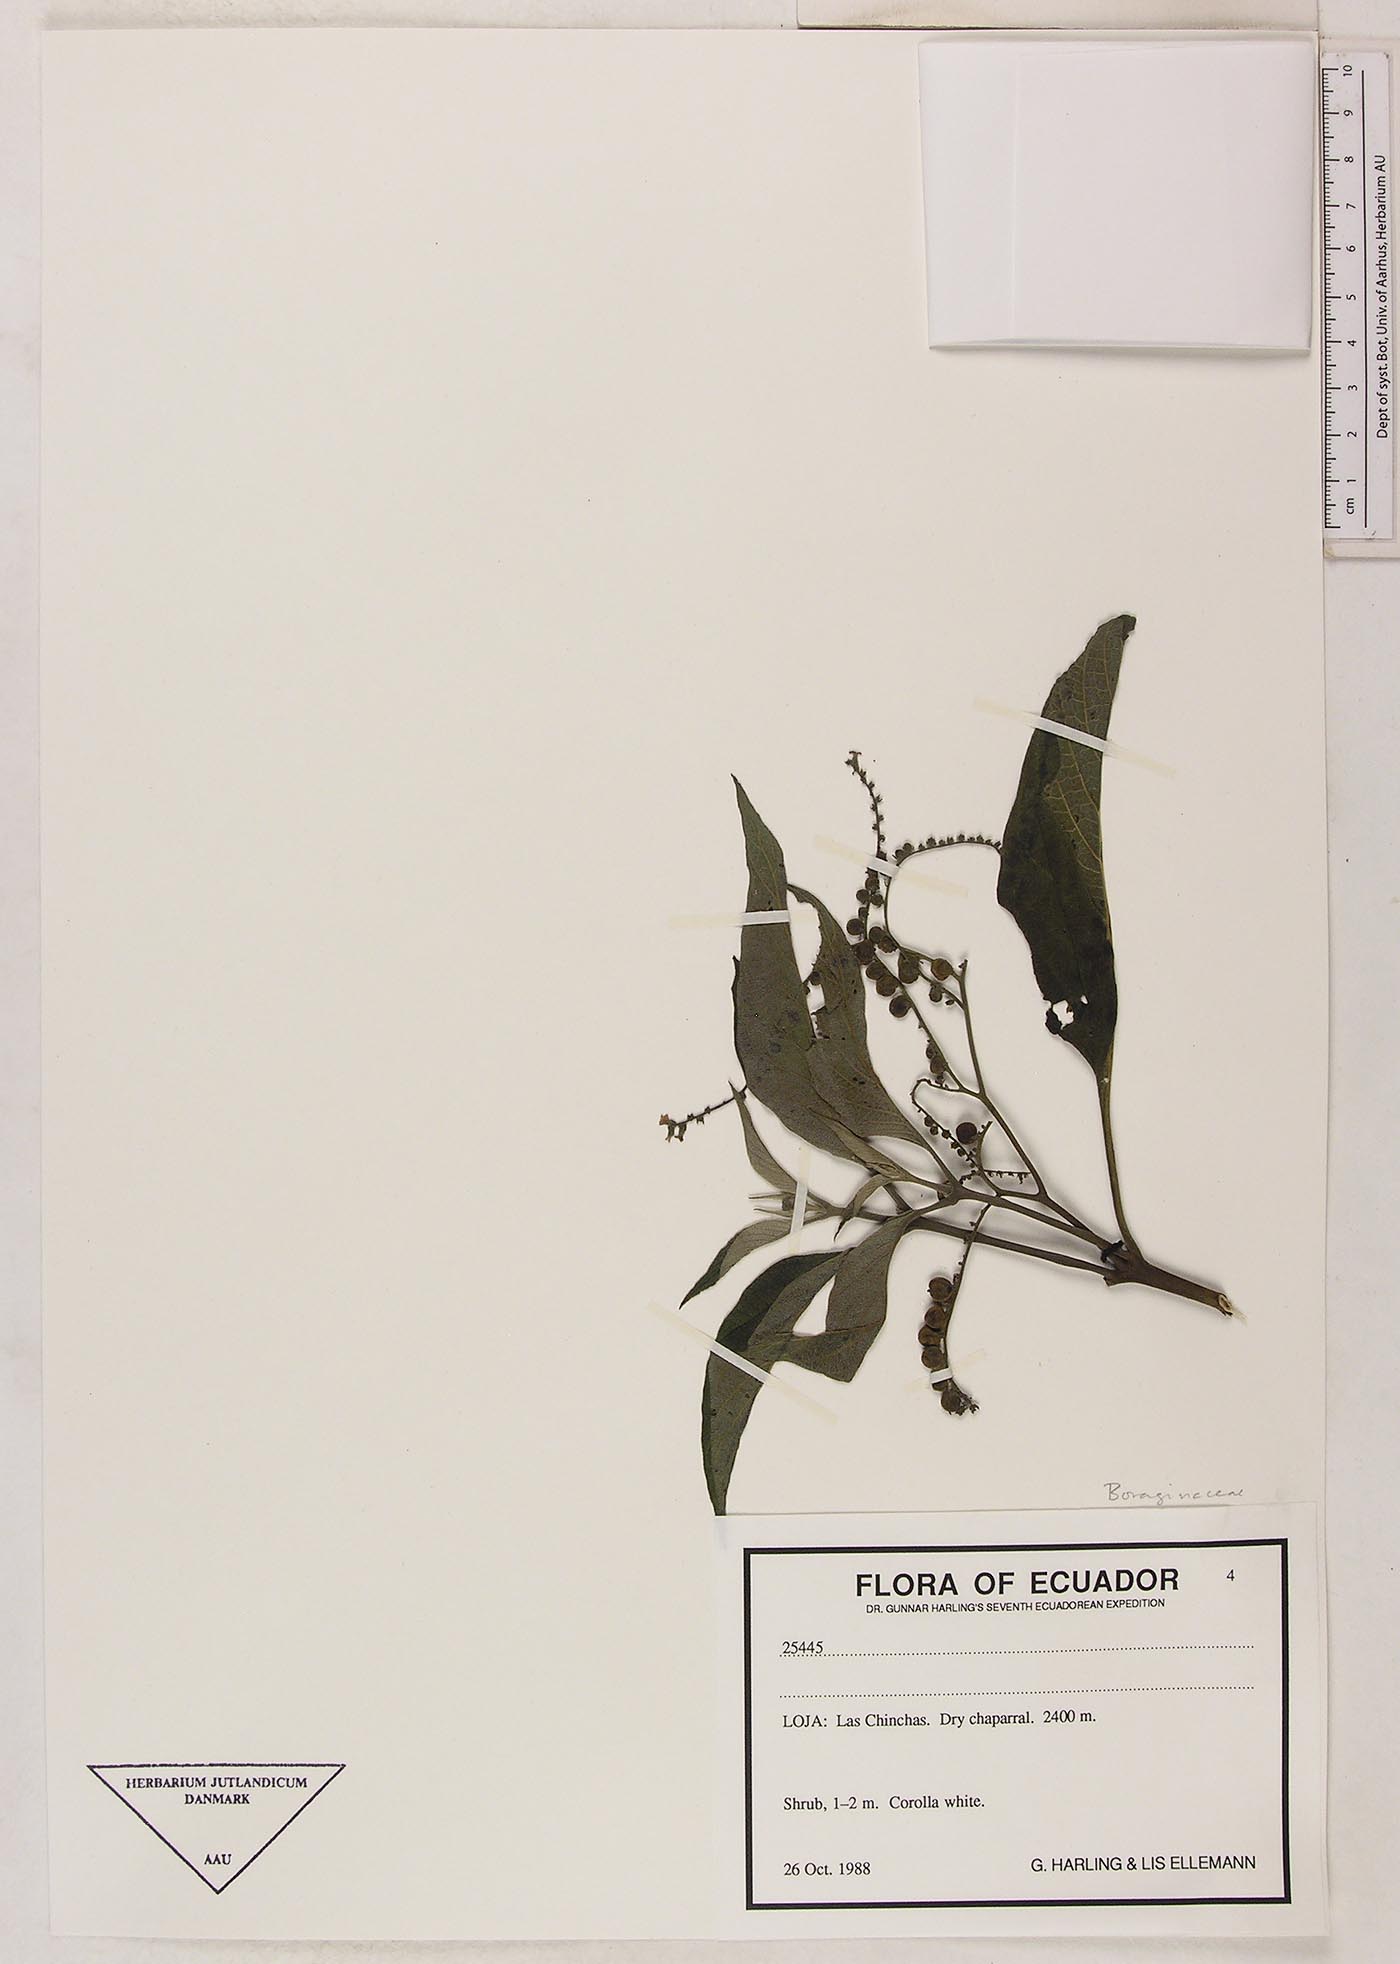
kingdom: Plantae
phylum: Tracheophyta
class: Magnoliopsida
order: Boraginales
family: Heliotropiaceae
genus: Heliotropium
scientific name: Heliotropium brevilobatum
